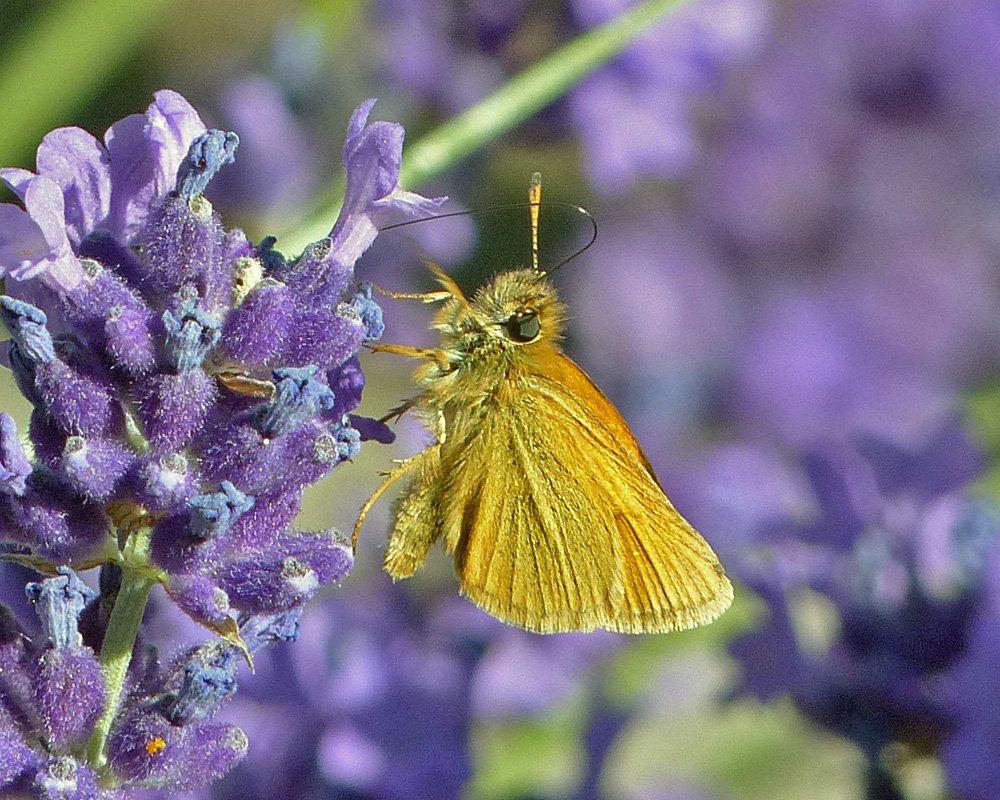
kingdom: Animalia
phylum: Arthropoda
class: Insecta
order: Lepidoptera
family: Hesperiidae
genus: Thymelicus
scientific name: Thymelicus lineola
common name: European Skipper
